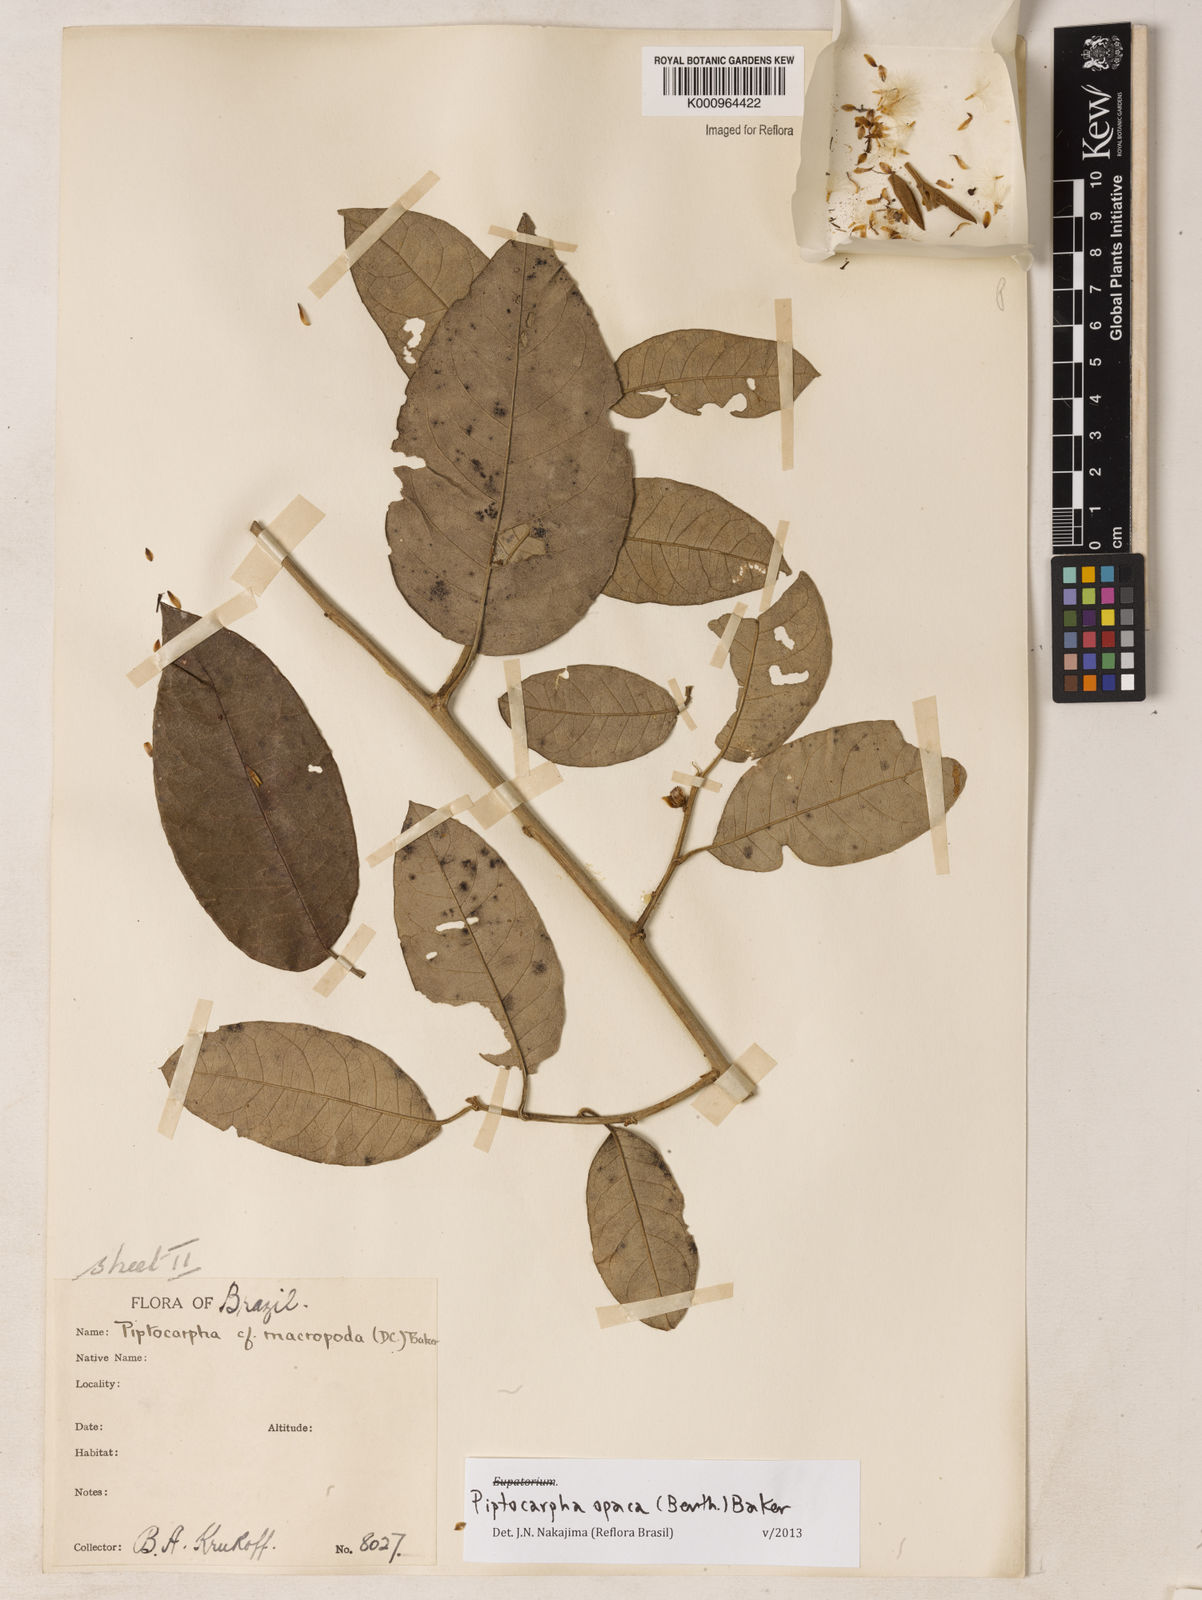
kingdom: Plantae
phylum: Tracheophyta
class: Magnoliopsida
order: Asterales
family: Asteraceae
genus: Piptocarpha
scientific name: Piptocarpha opaca
